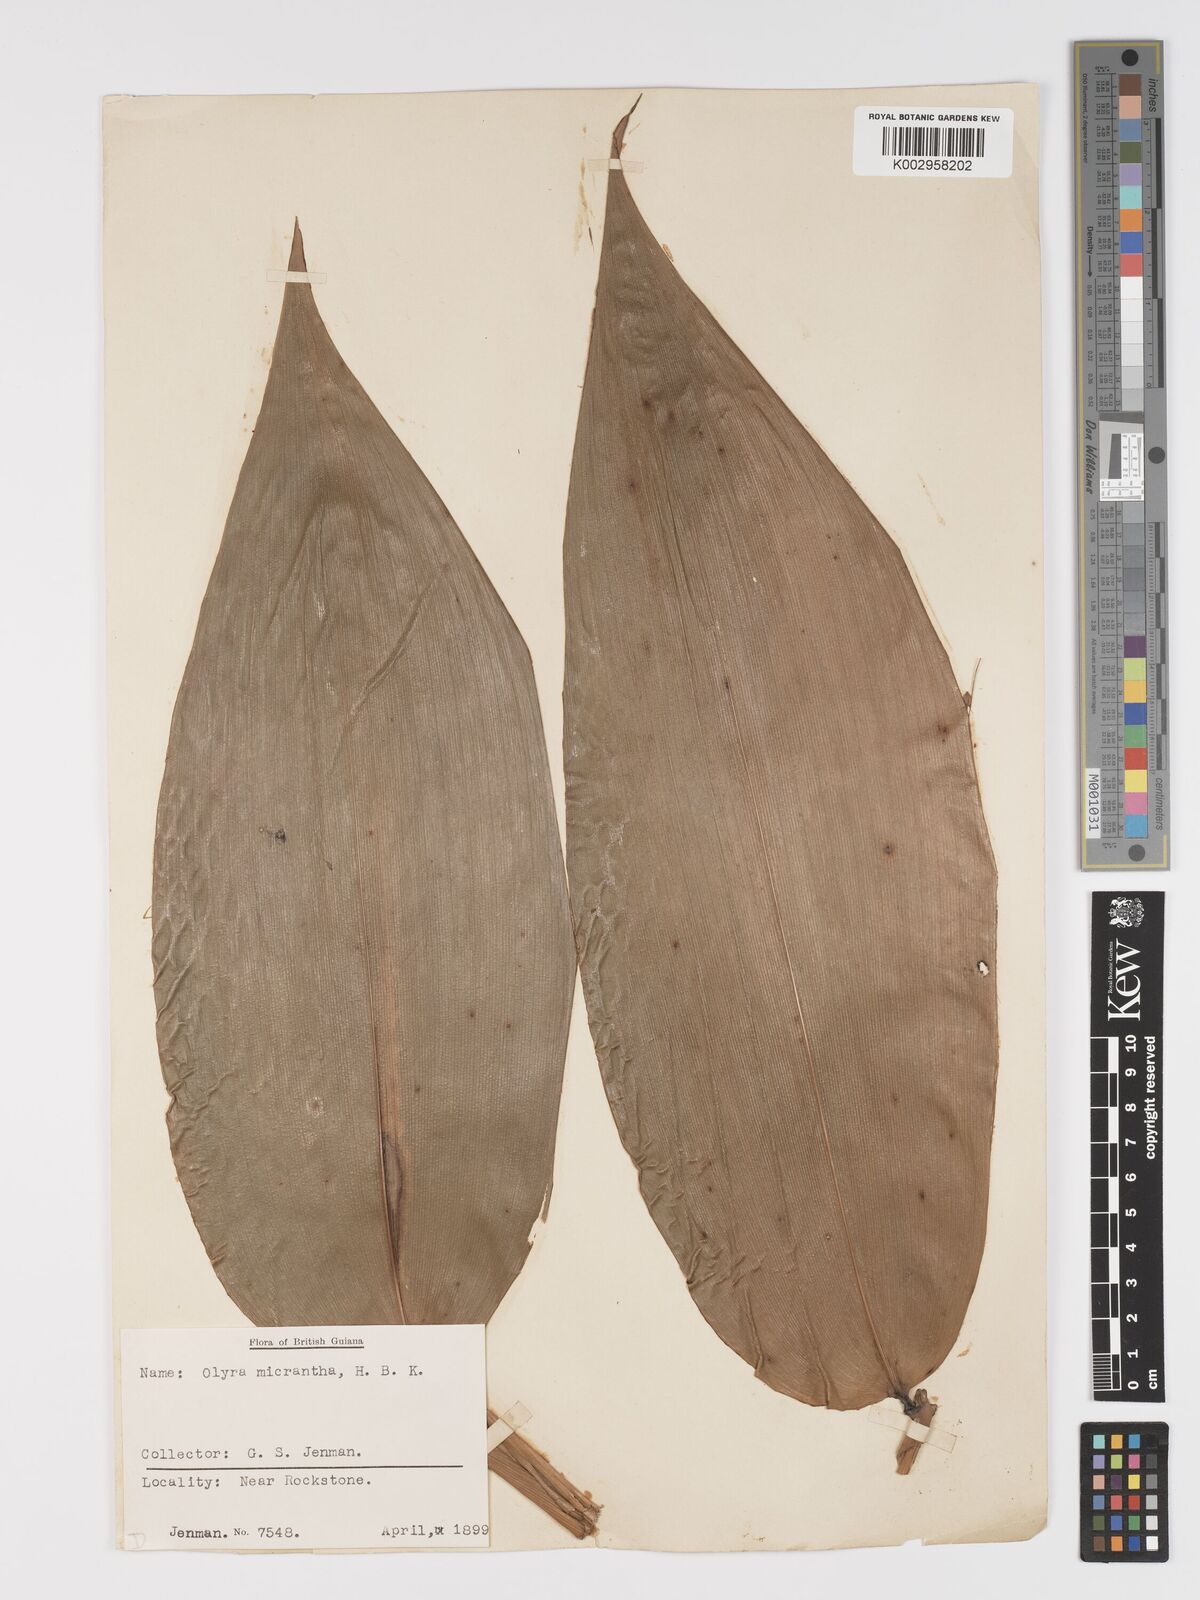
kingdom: Plantae
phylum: Tracheophyta
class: Liliopsida
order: Poales
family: Poaceae
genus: Taquara
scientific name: Taquara micrantha
